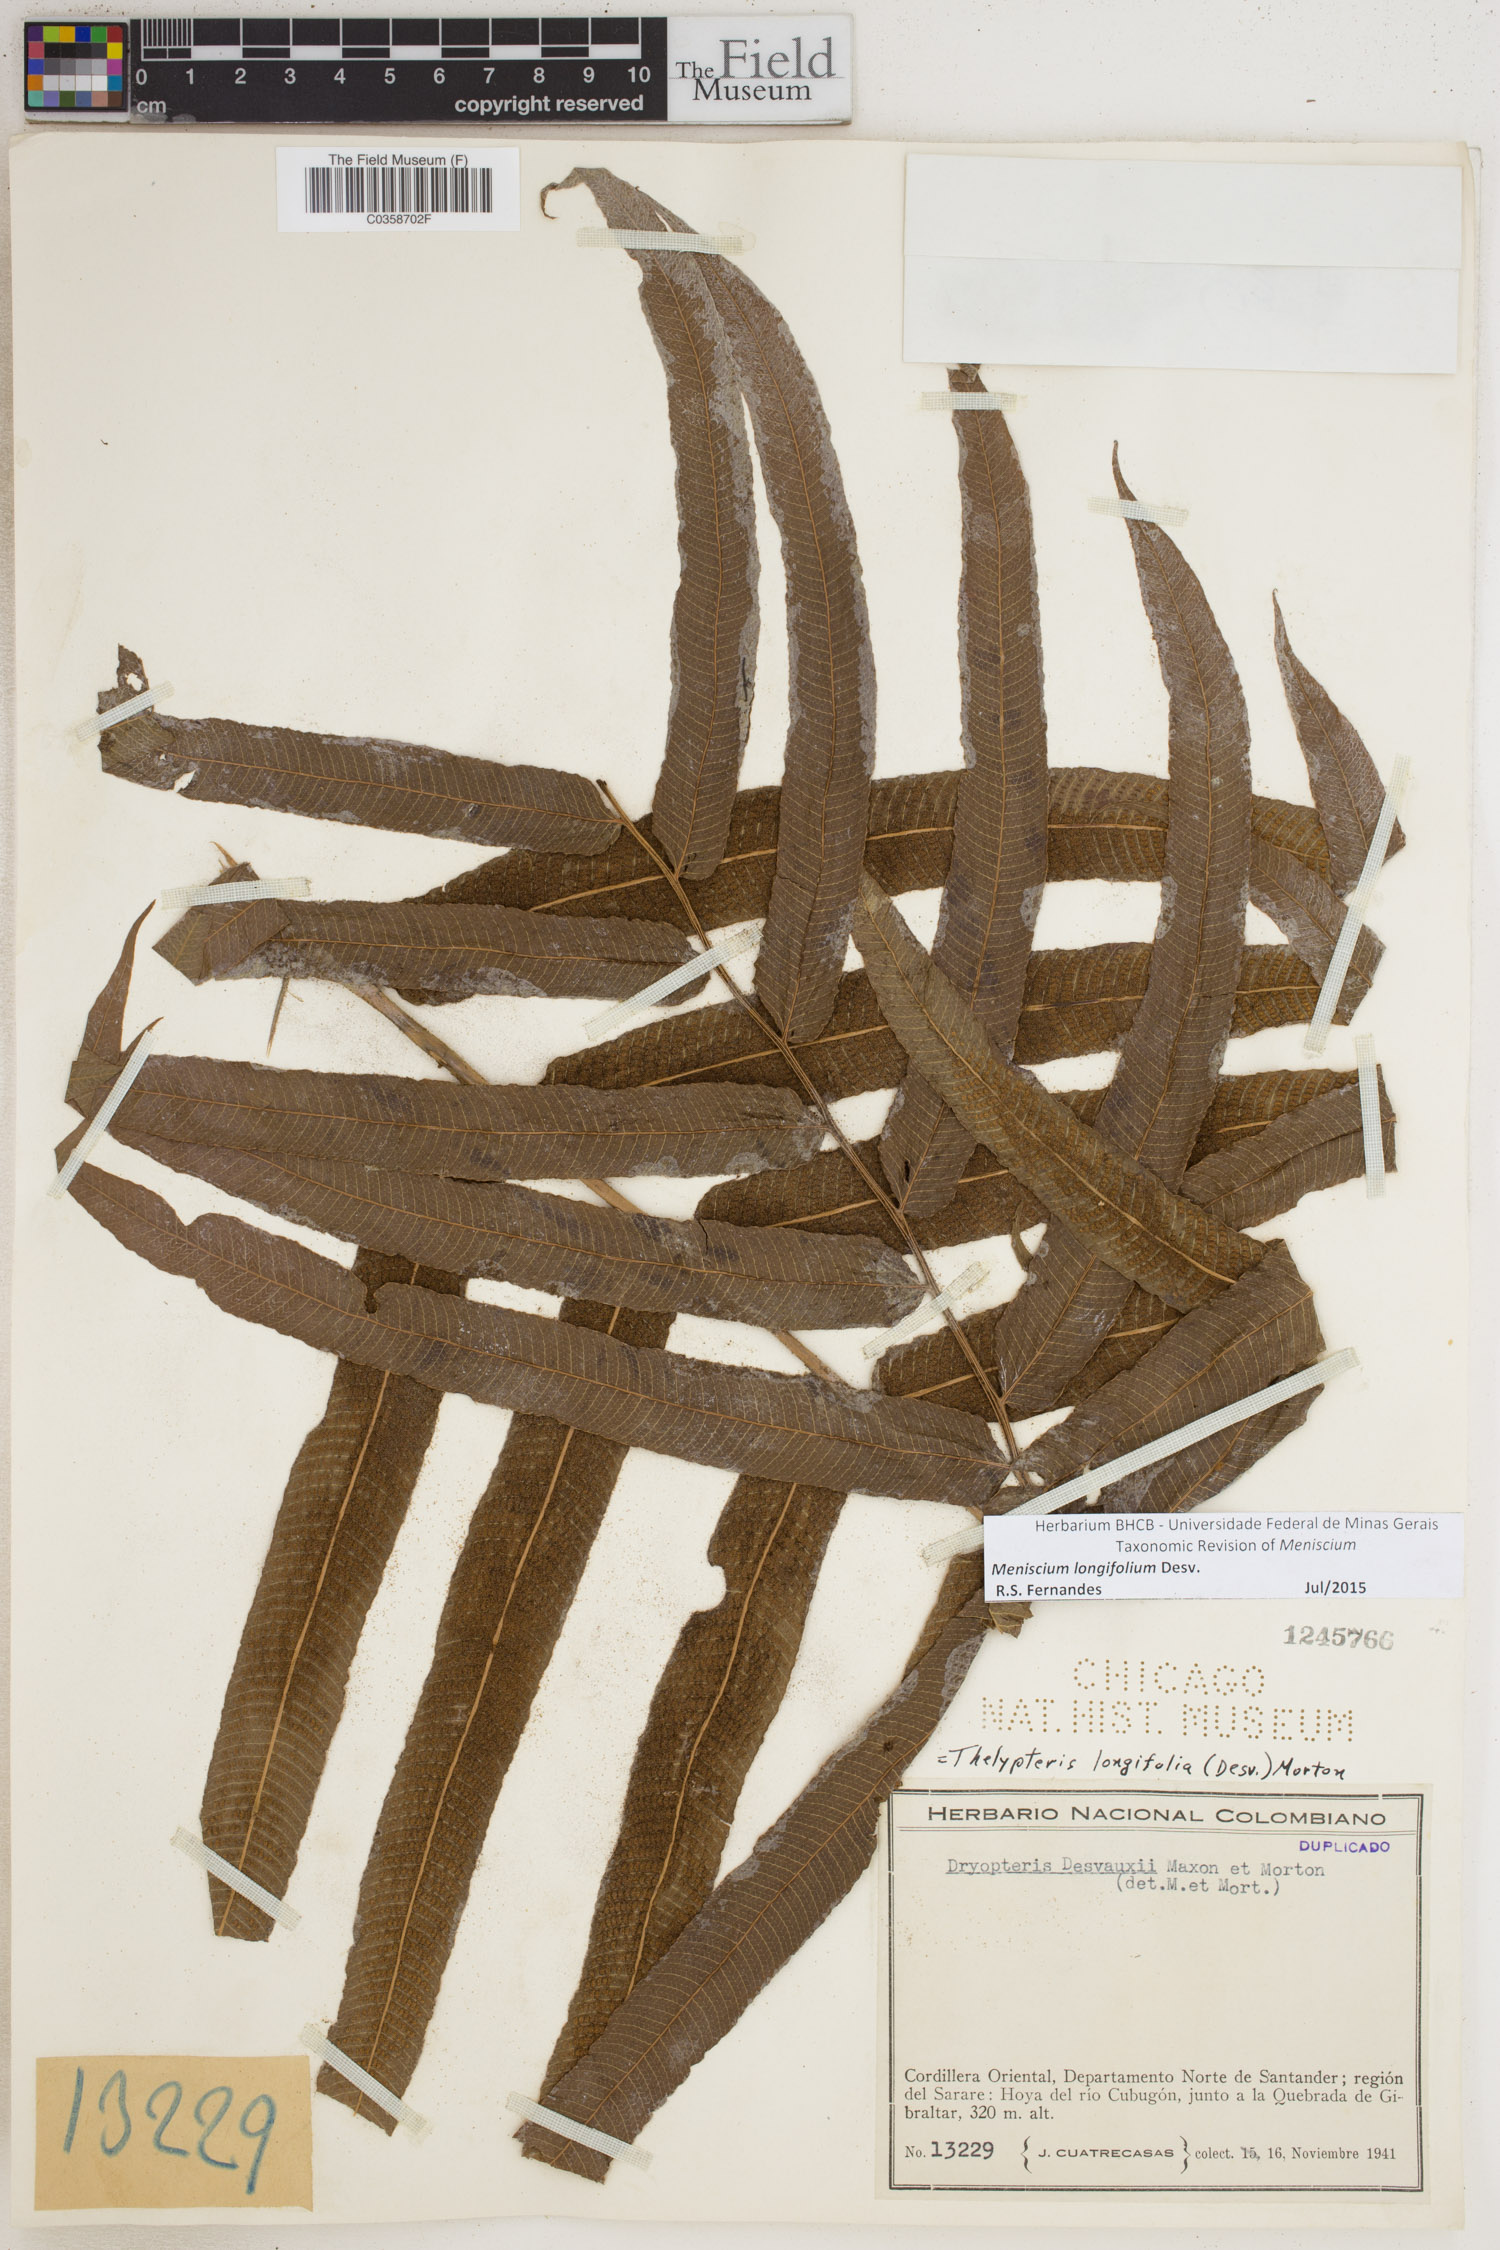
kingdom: Plantae
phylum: Tracheophyta
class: Polypodiopsida
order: Polypodiales
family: Thelypteridaceae
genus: Meniscium
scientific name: Meniscium longifolium
